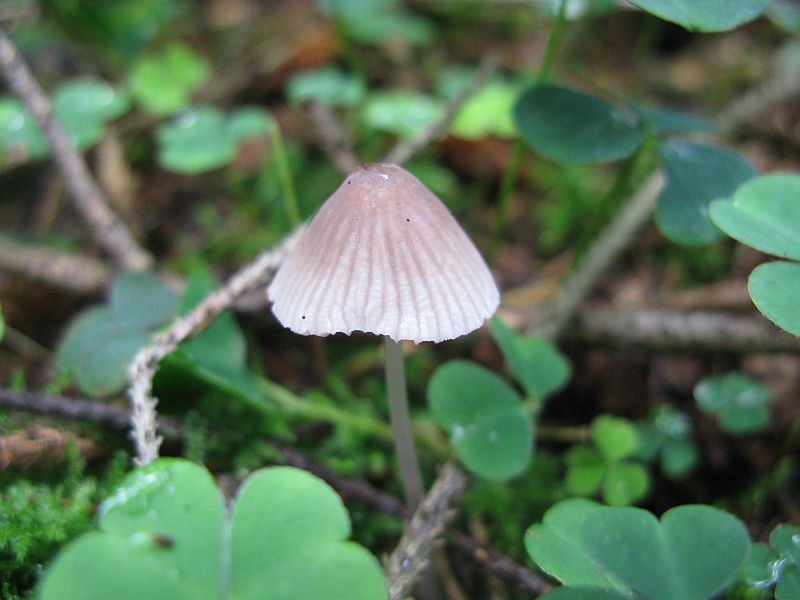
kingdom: Fungi
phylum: Basidiomycota
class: Agaricomycetes
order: Agaricales
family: Mycenaceae
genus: Mycena
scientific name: Mycena rubromarginata
